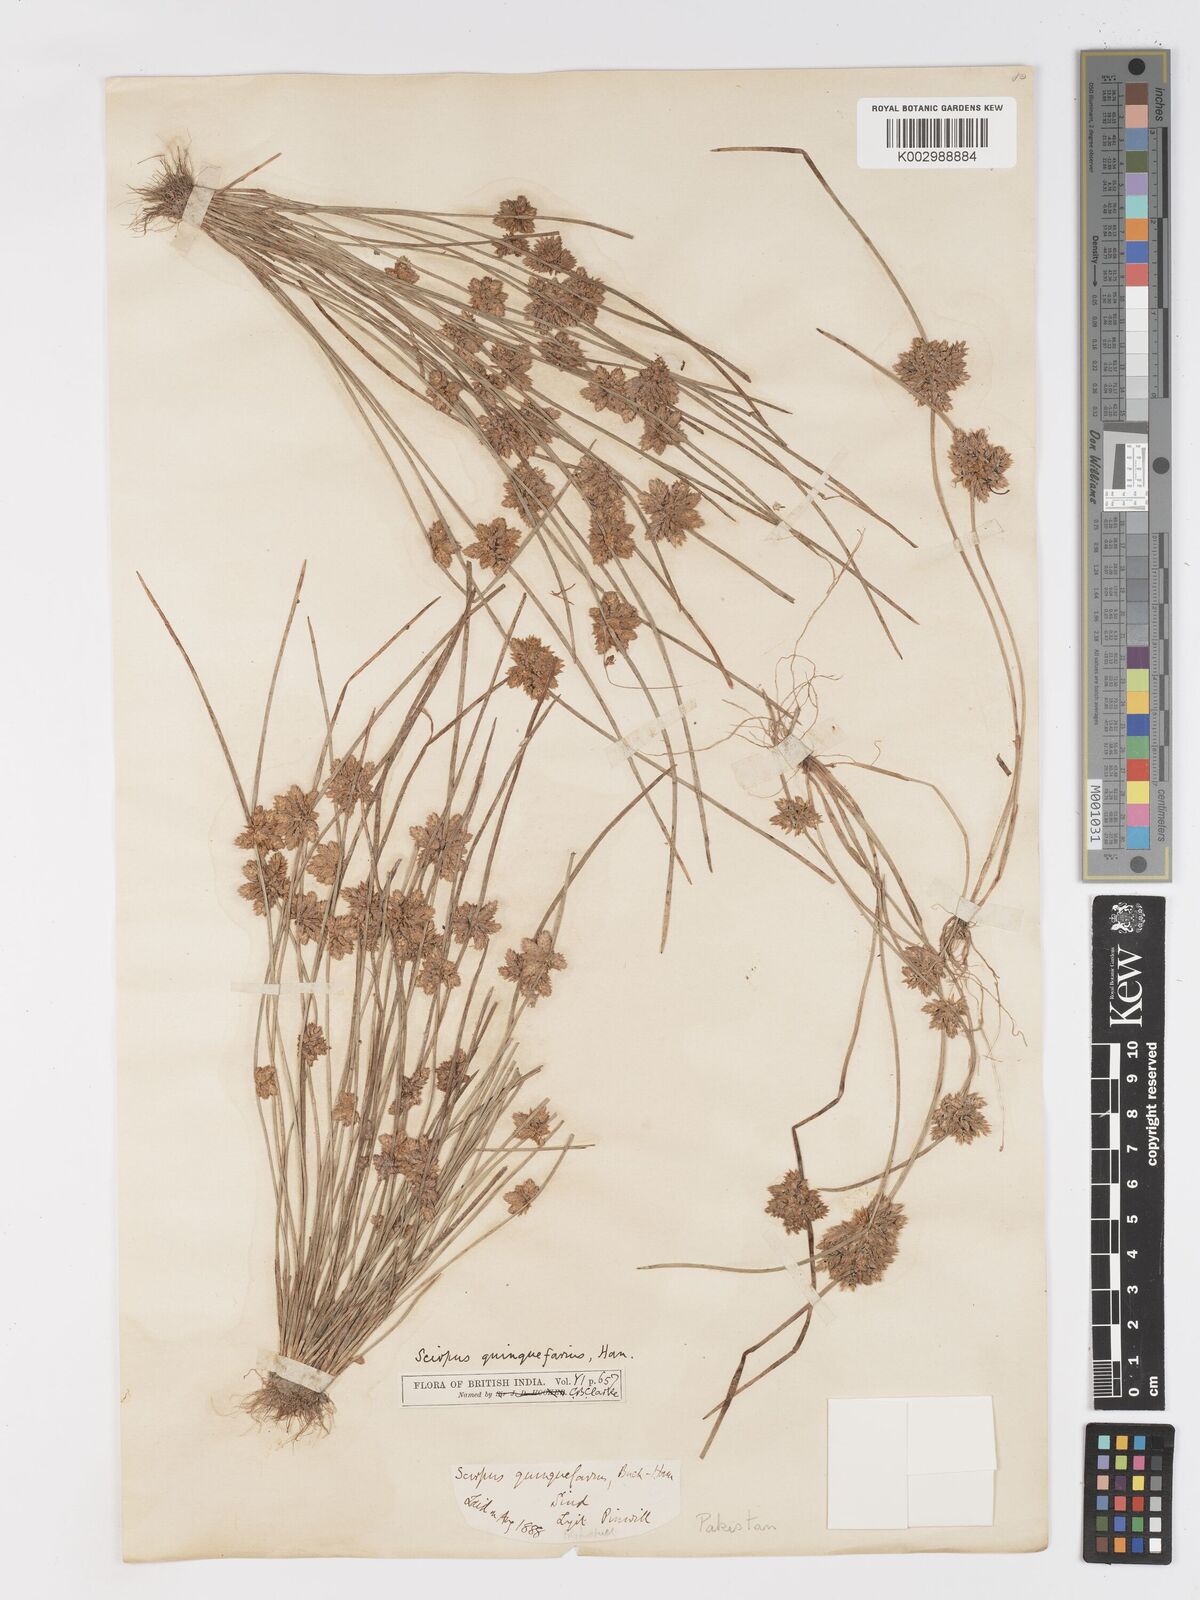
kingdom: Plantae
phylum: Tracheophyta
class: Liliopsida
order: Poales
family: Cyperaceae
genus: Schoenoplectiella
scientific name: Schoenoplectiella roylei
